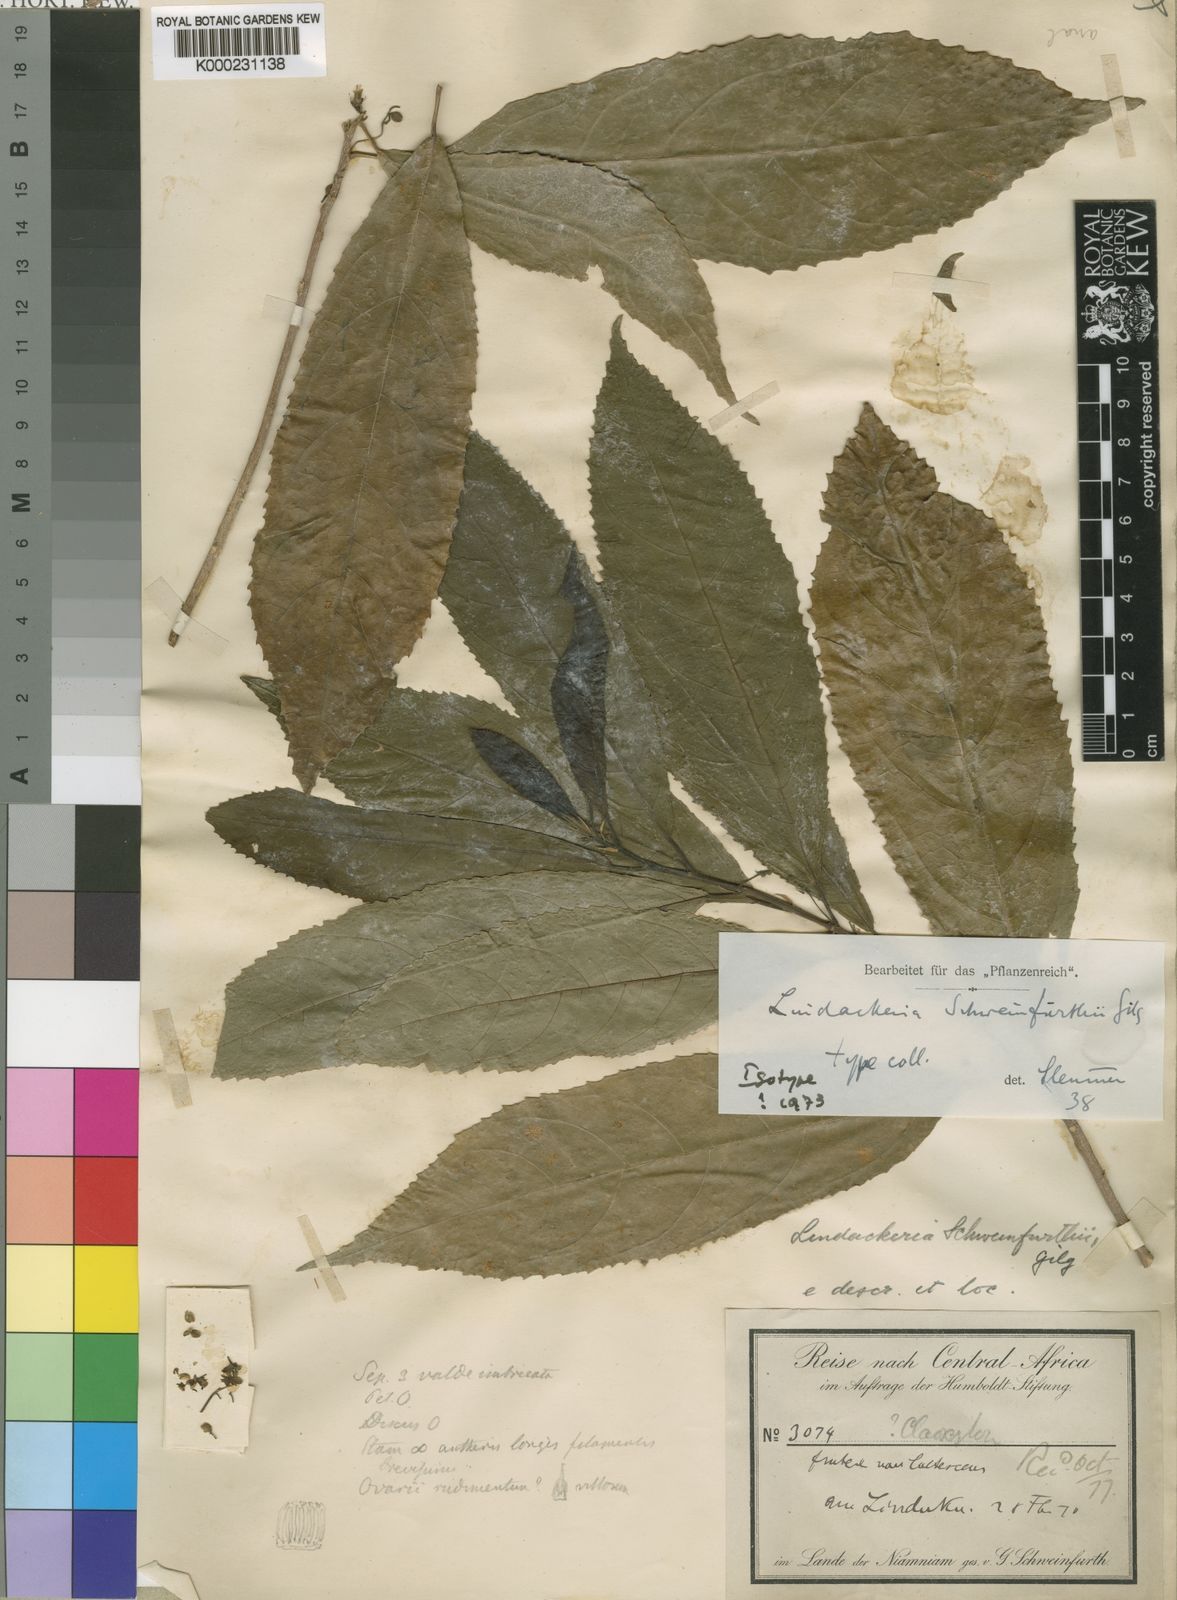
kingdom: Plantae
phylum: Tracheophyta
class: Magnoliopsida
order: Malpighiales
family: Achariaceae
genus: Lindackeria
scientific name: Lindackeria schweinfurthii
